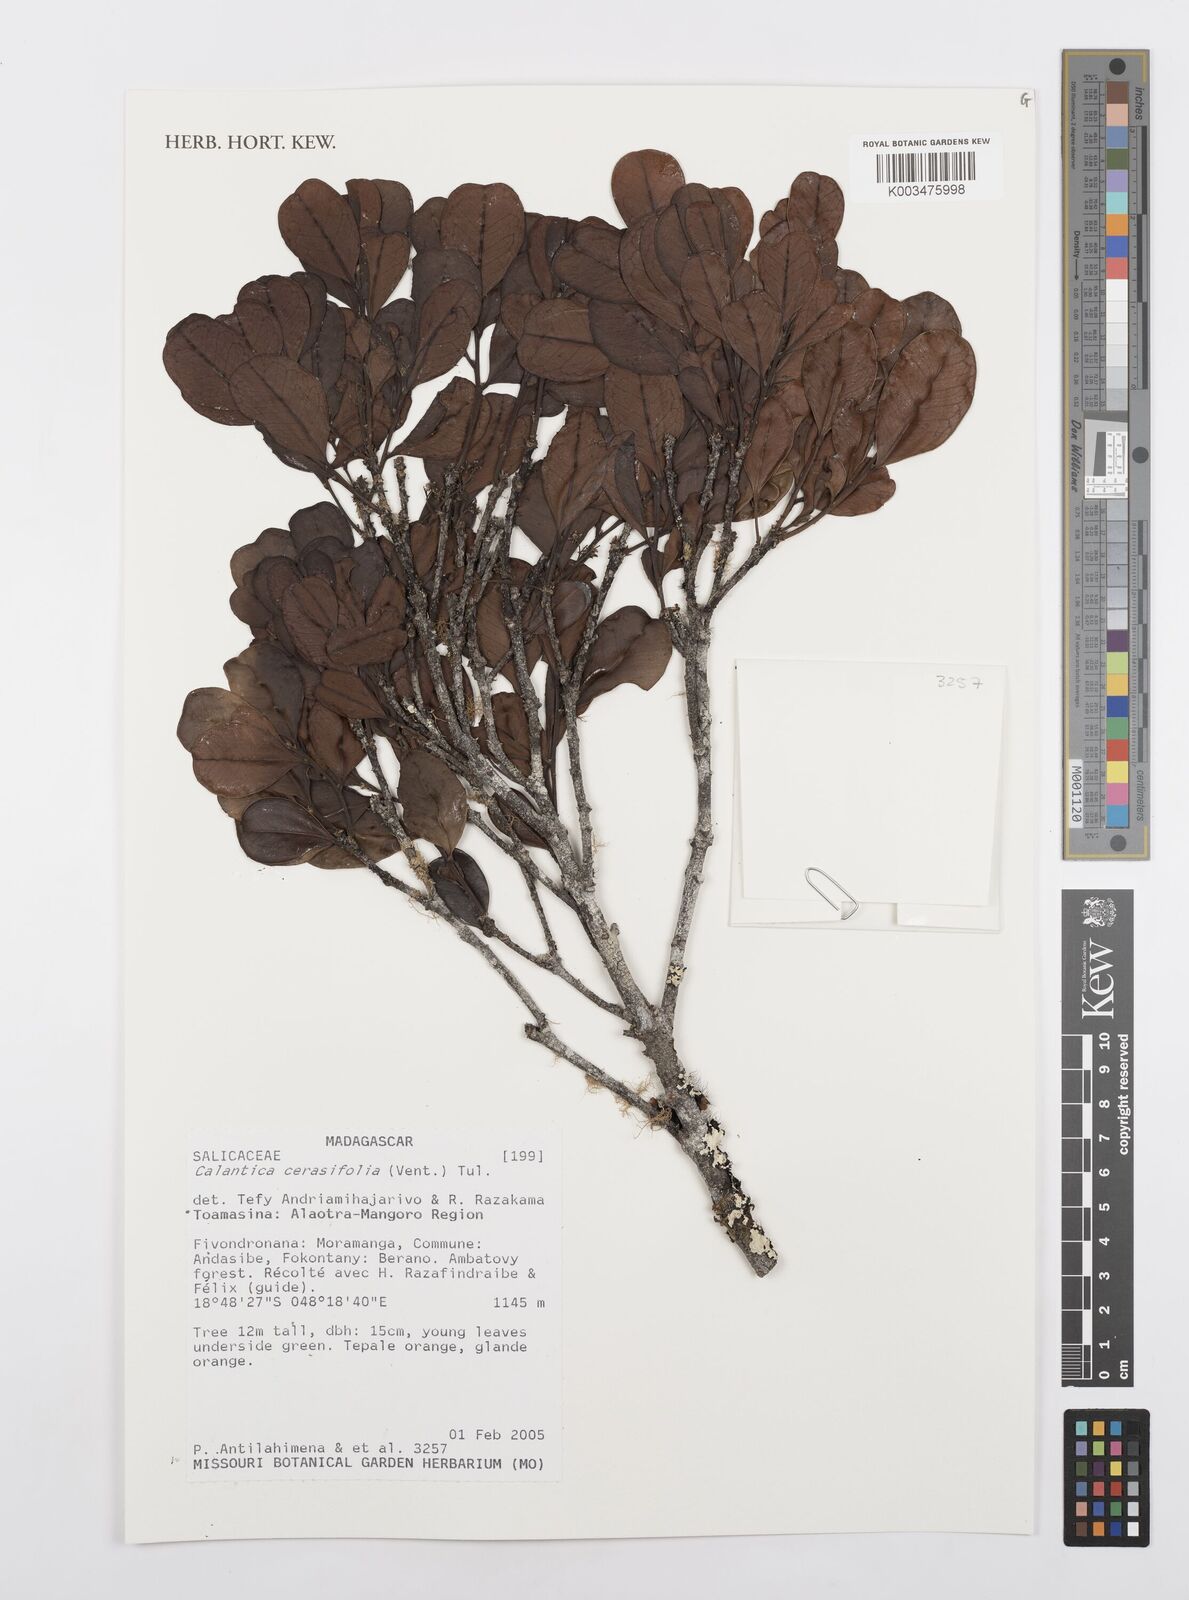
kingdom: Plantae
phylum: Tracheophyta
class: Magnoliopsida
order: Malpighiales
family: Salicaceae
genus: Calantica
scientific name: Calantica cerasifolia
